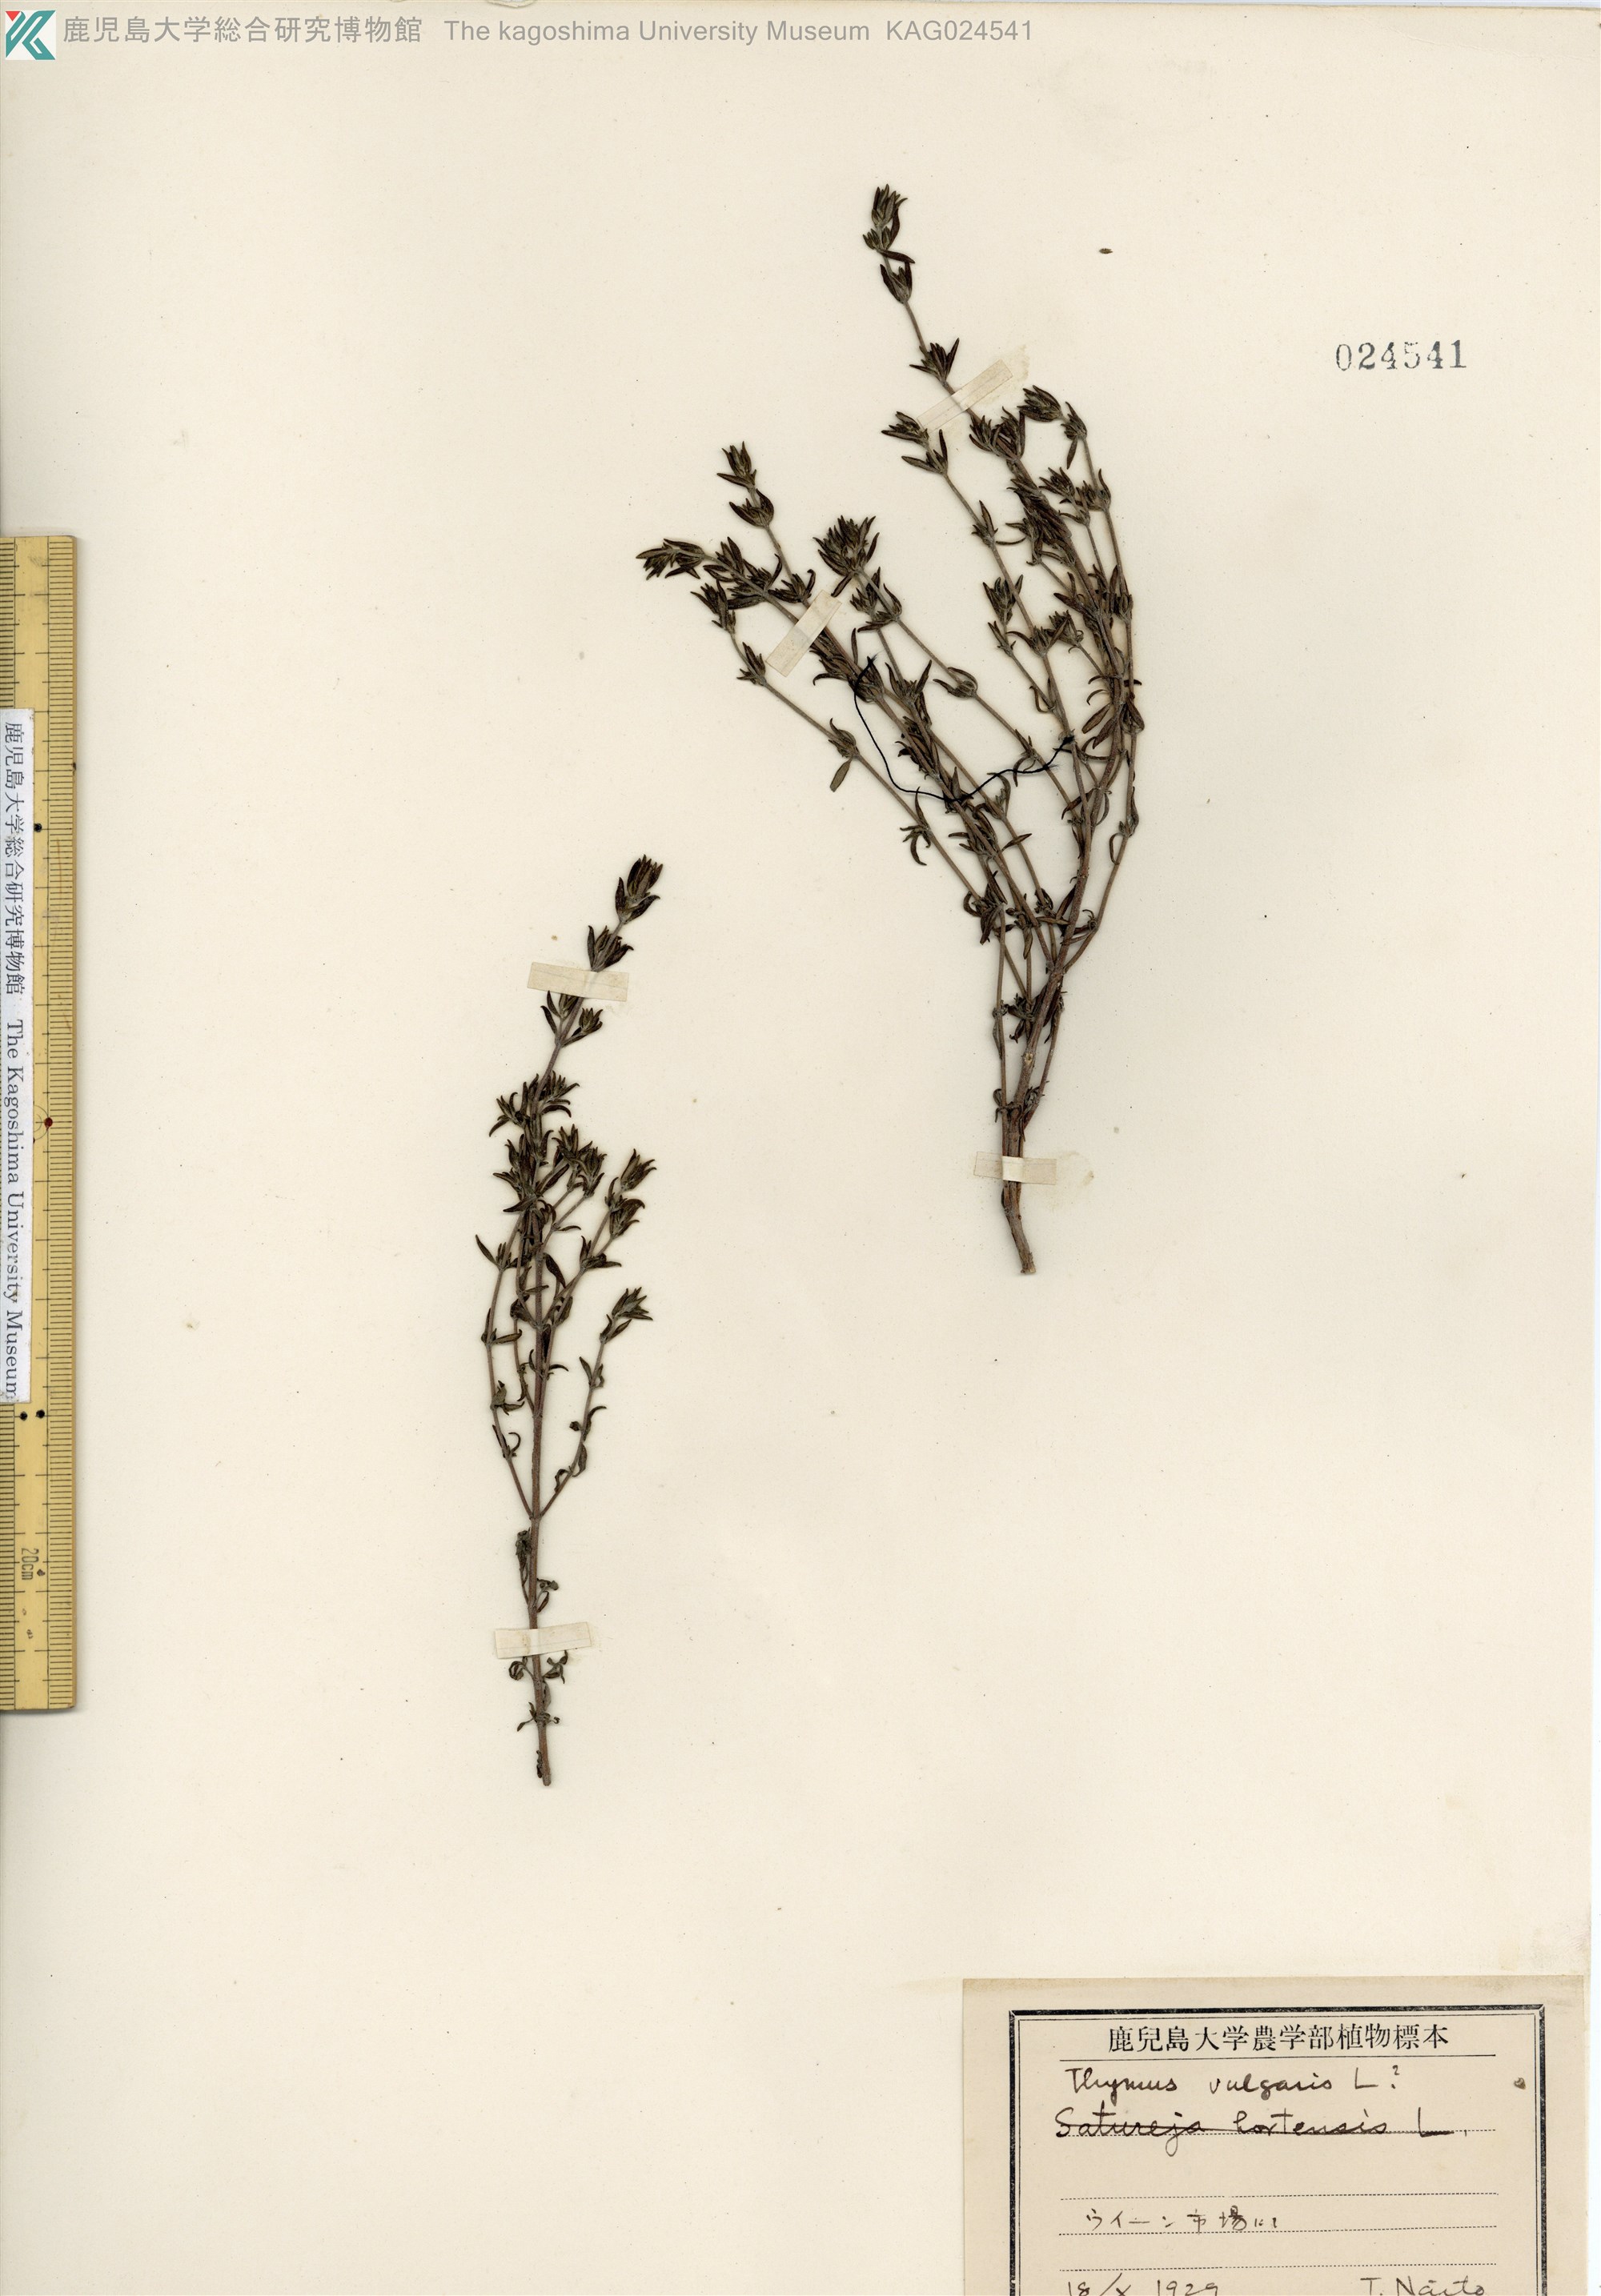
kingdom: Plantae
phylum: Tracheophyta
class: Magnoliopsida
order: Lamiales
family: Lamiaceae
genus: Thymus
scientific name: Thymus vulgaris
